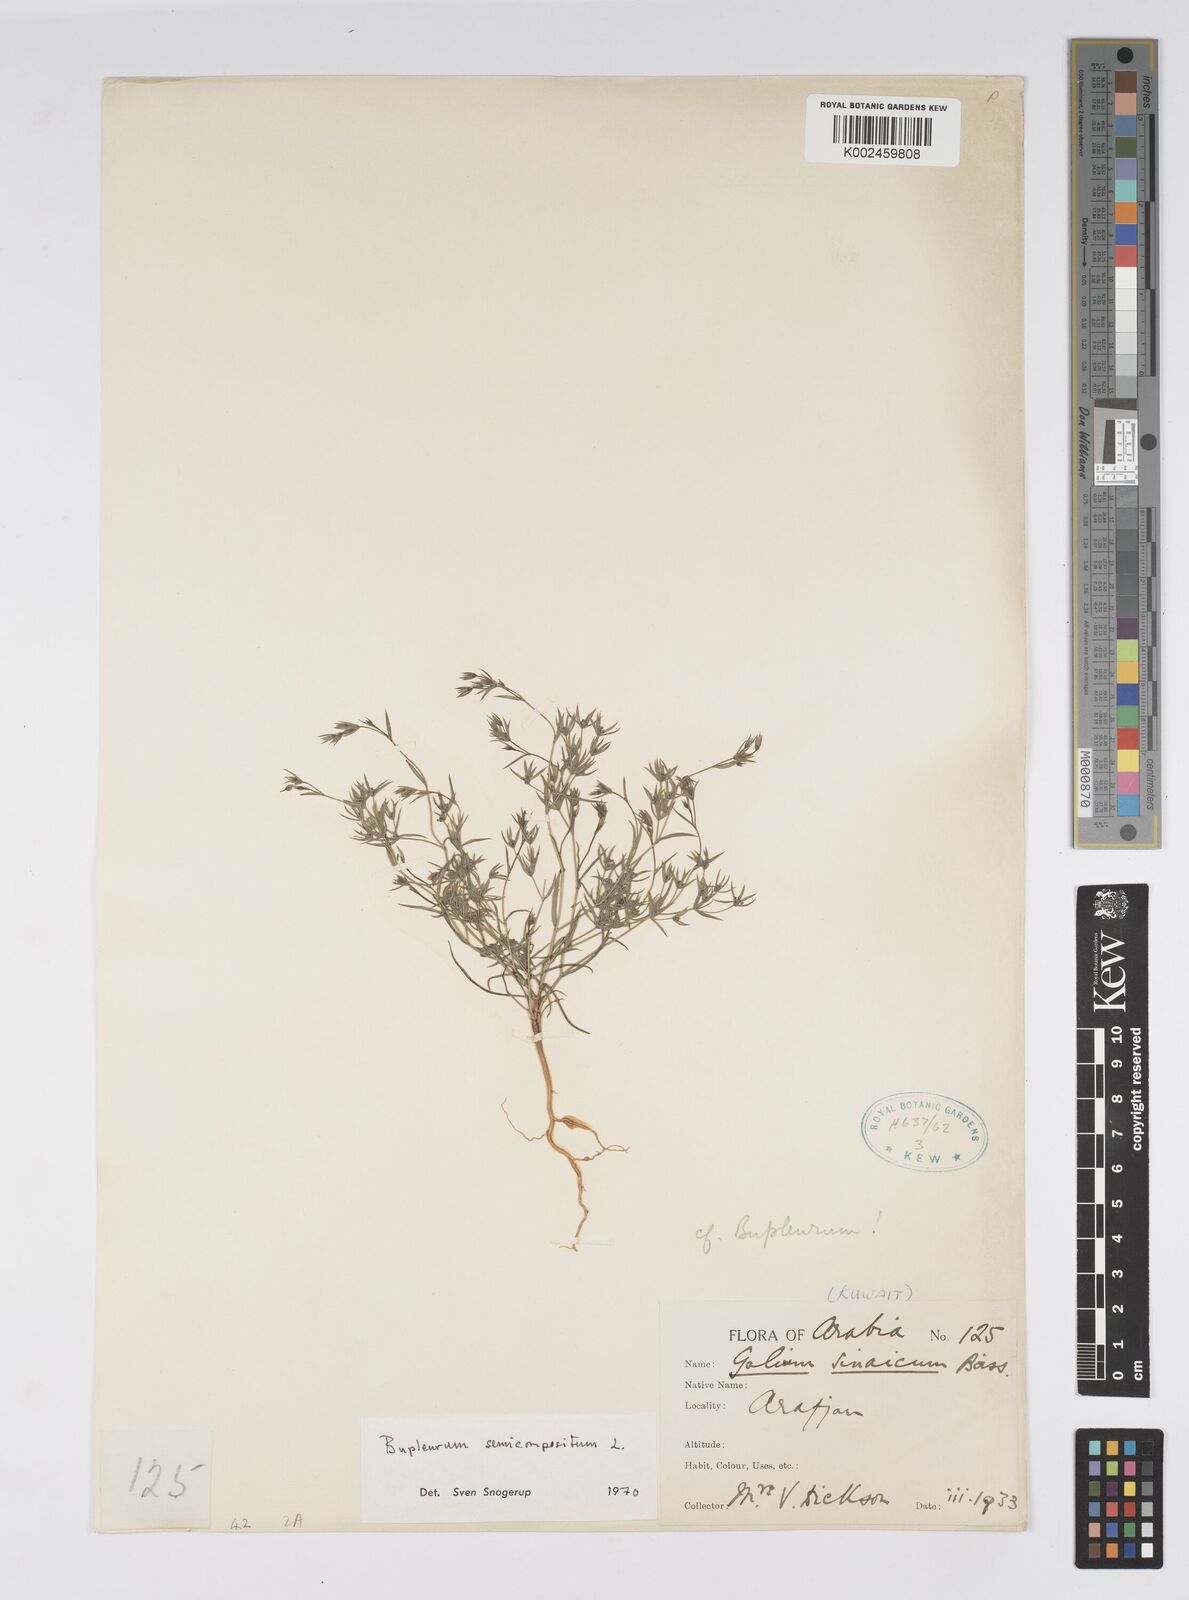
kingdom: Plantae
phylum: Tracheophyta
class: Magnoliopsida
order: Apiales
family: Apiaceae
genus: Bupleurum
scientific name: Bupleurum semicompositum
